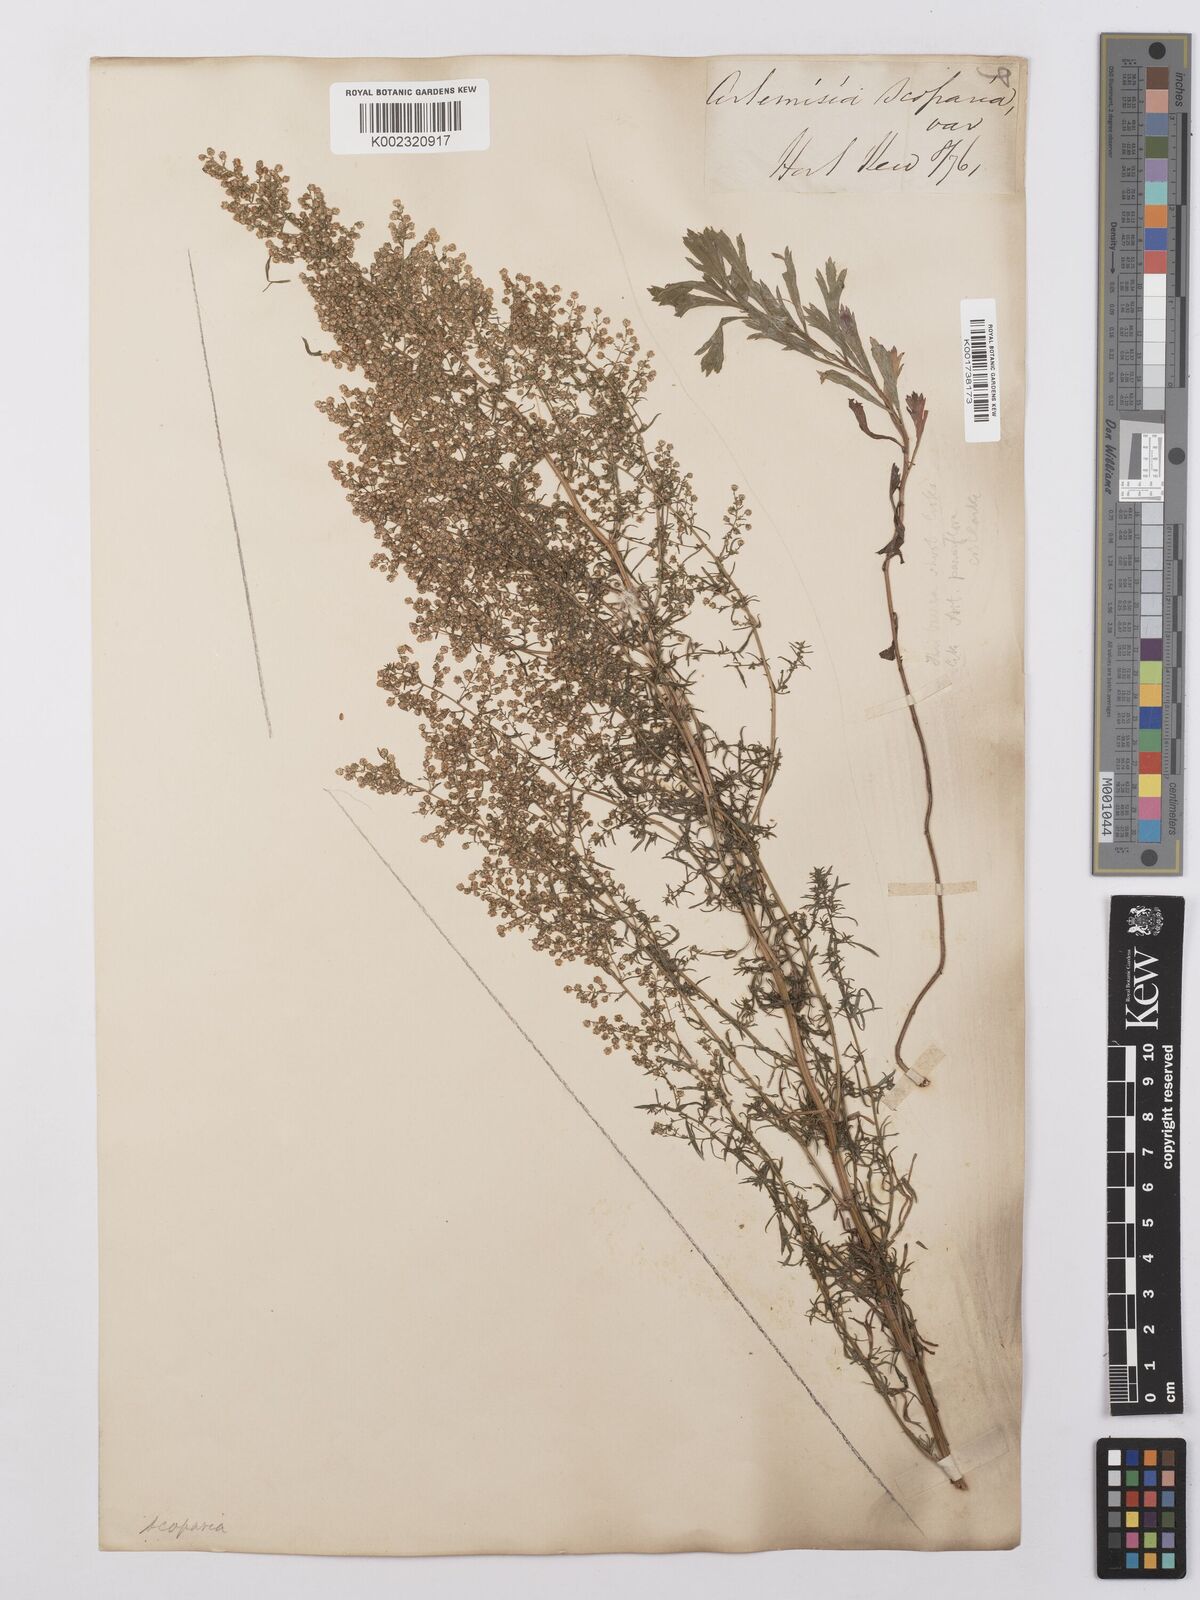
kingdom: Plantae
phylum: Tracheophyta
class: Magnoliopsida
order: Asterales
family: Asteraceae
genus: Artemisia
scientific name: Artemisia scoparia
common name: Redstem wormwood
